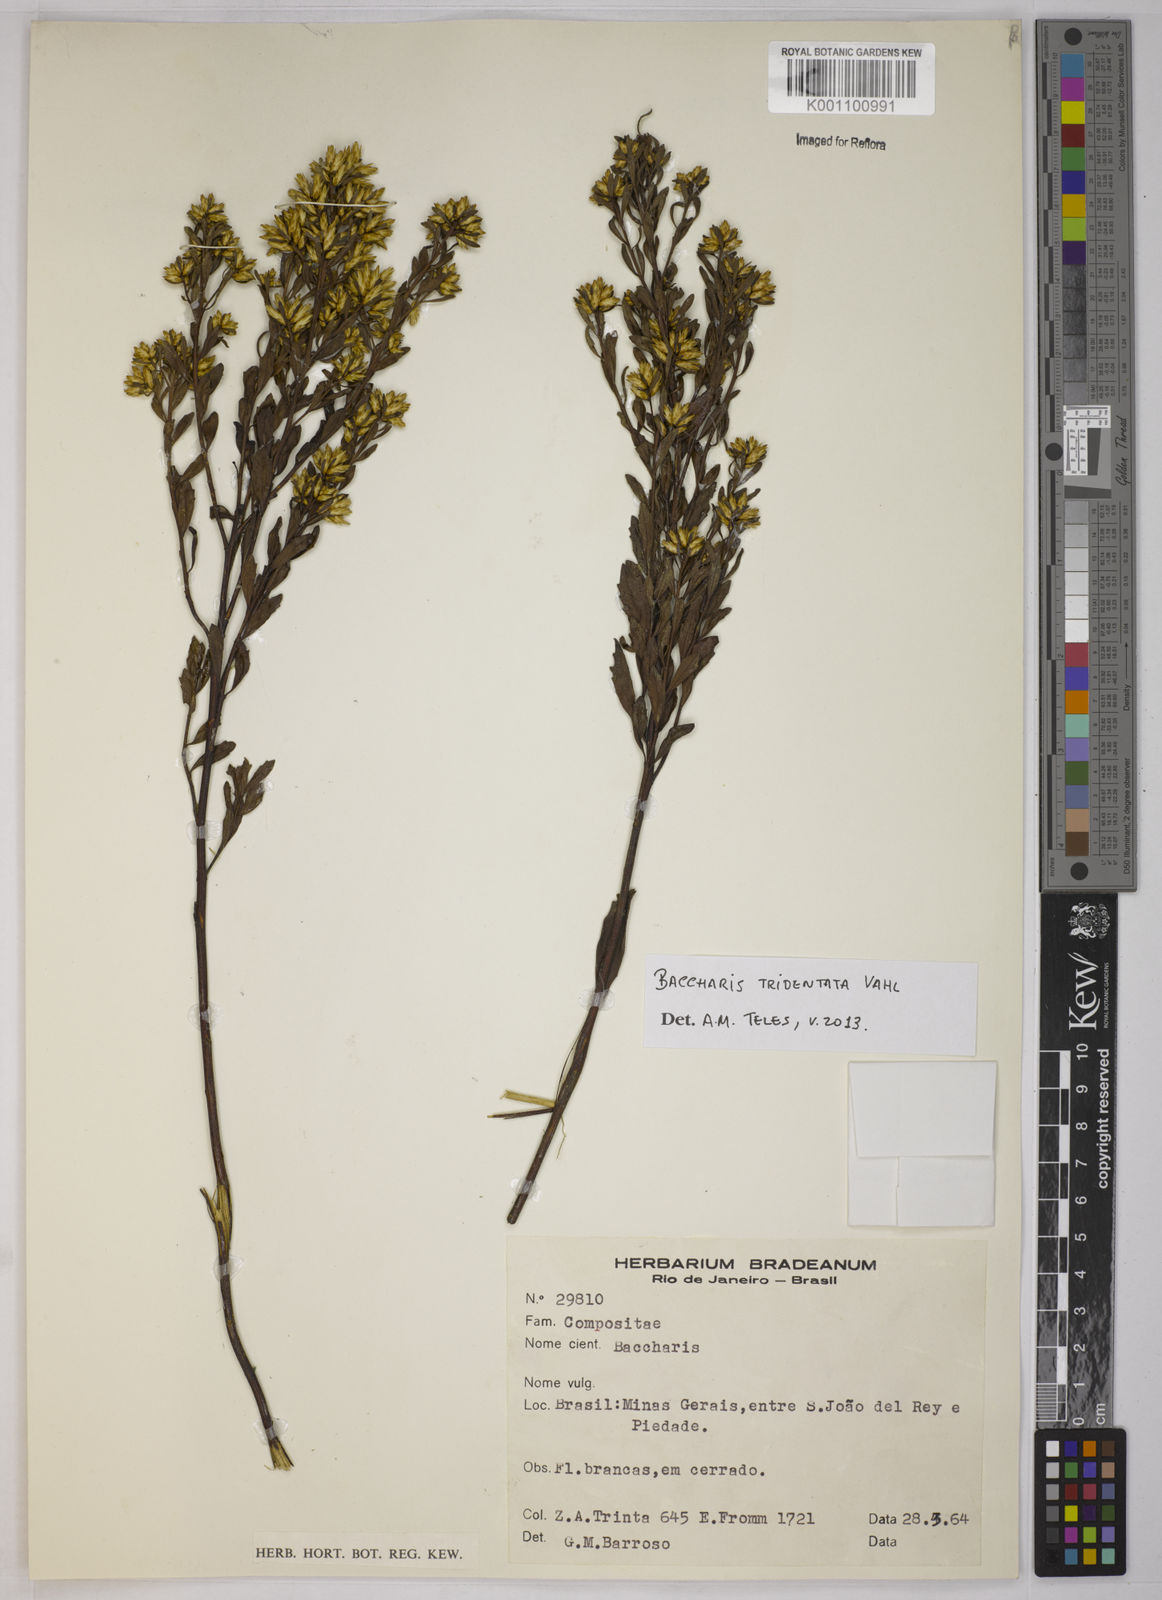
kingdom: Plantae
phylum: Tracheophyta
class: Magnoliopsida
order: Asterales
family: Asteraceae
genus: Baccharis
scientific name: Baccharis tridentata
